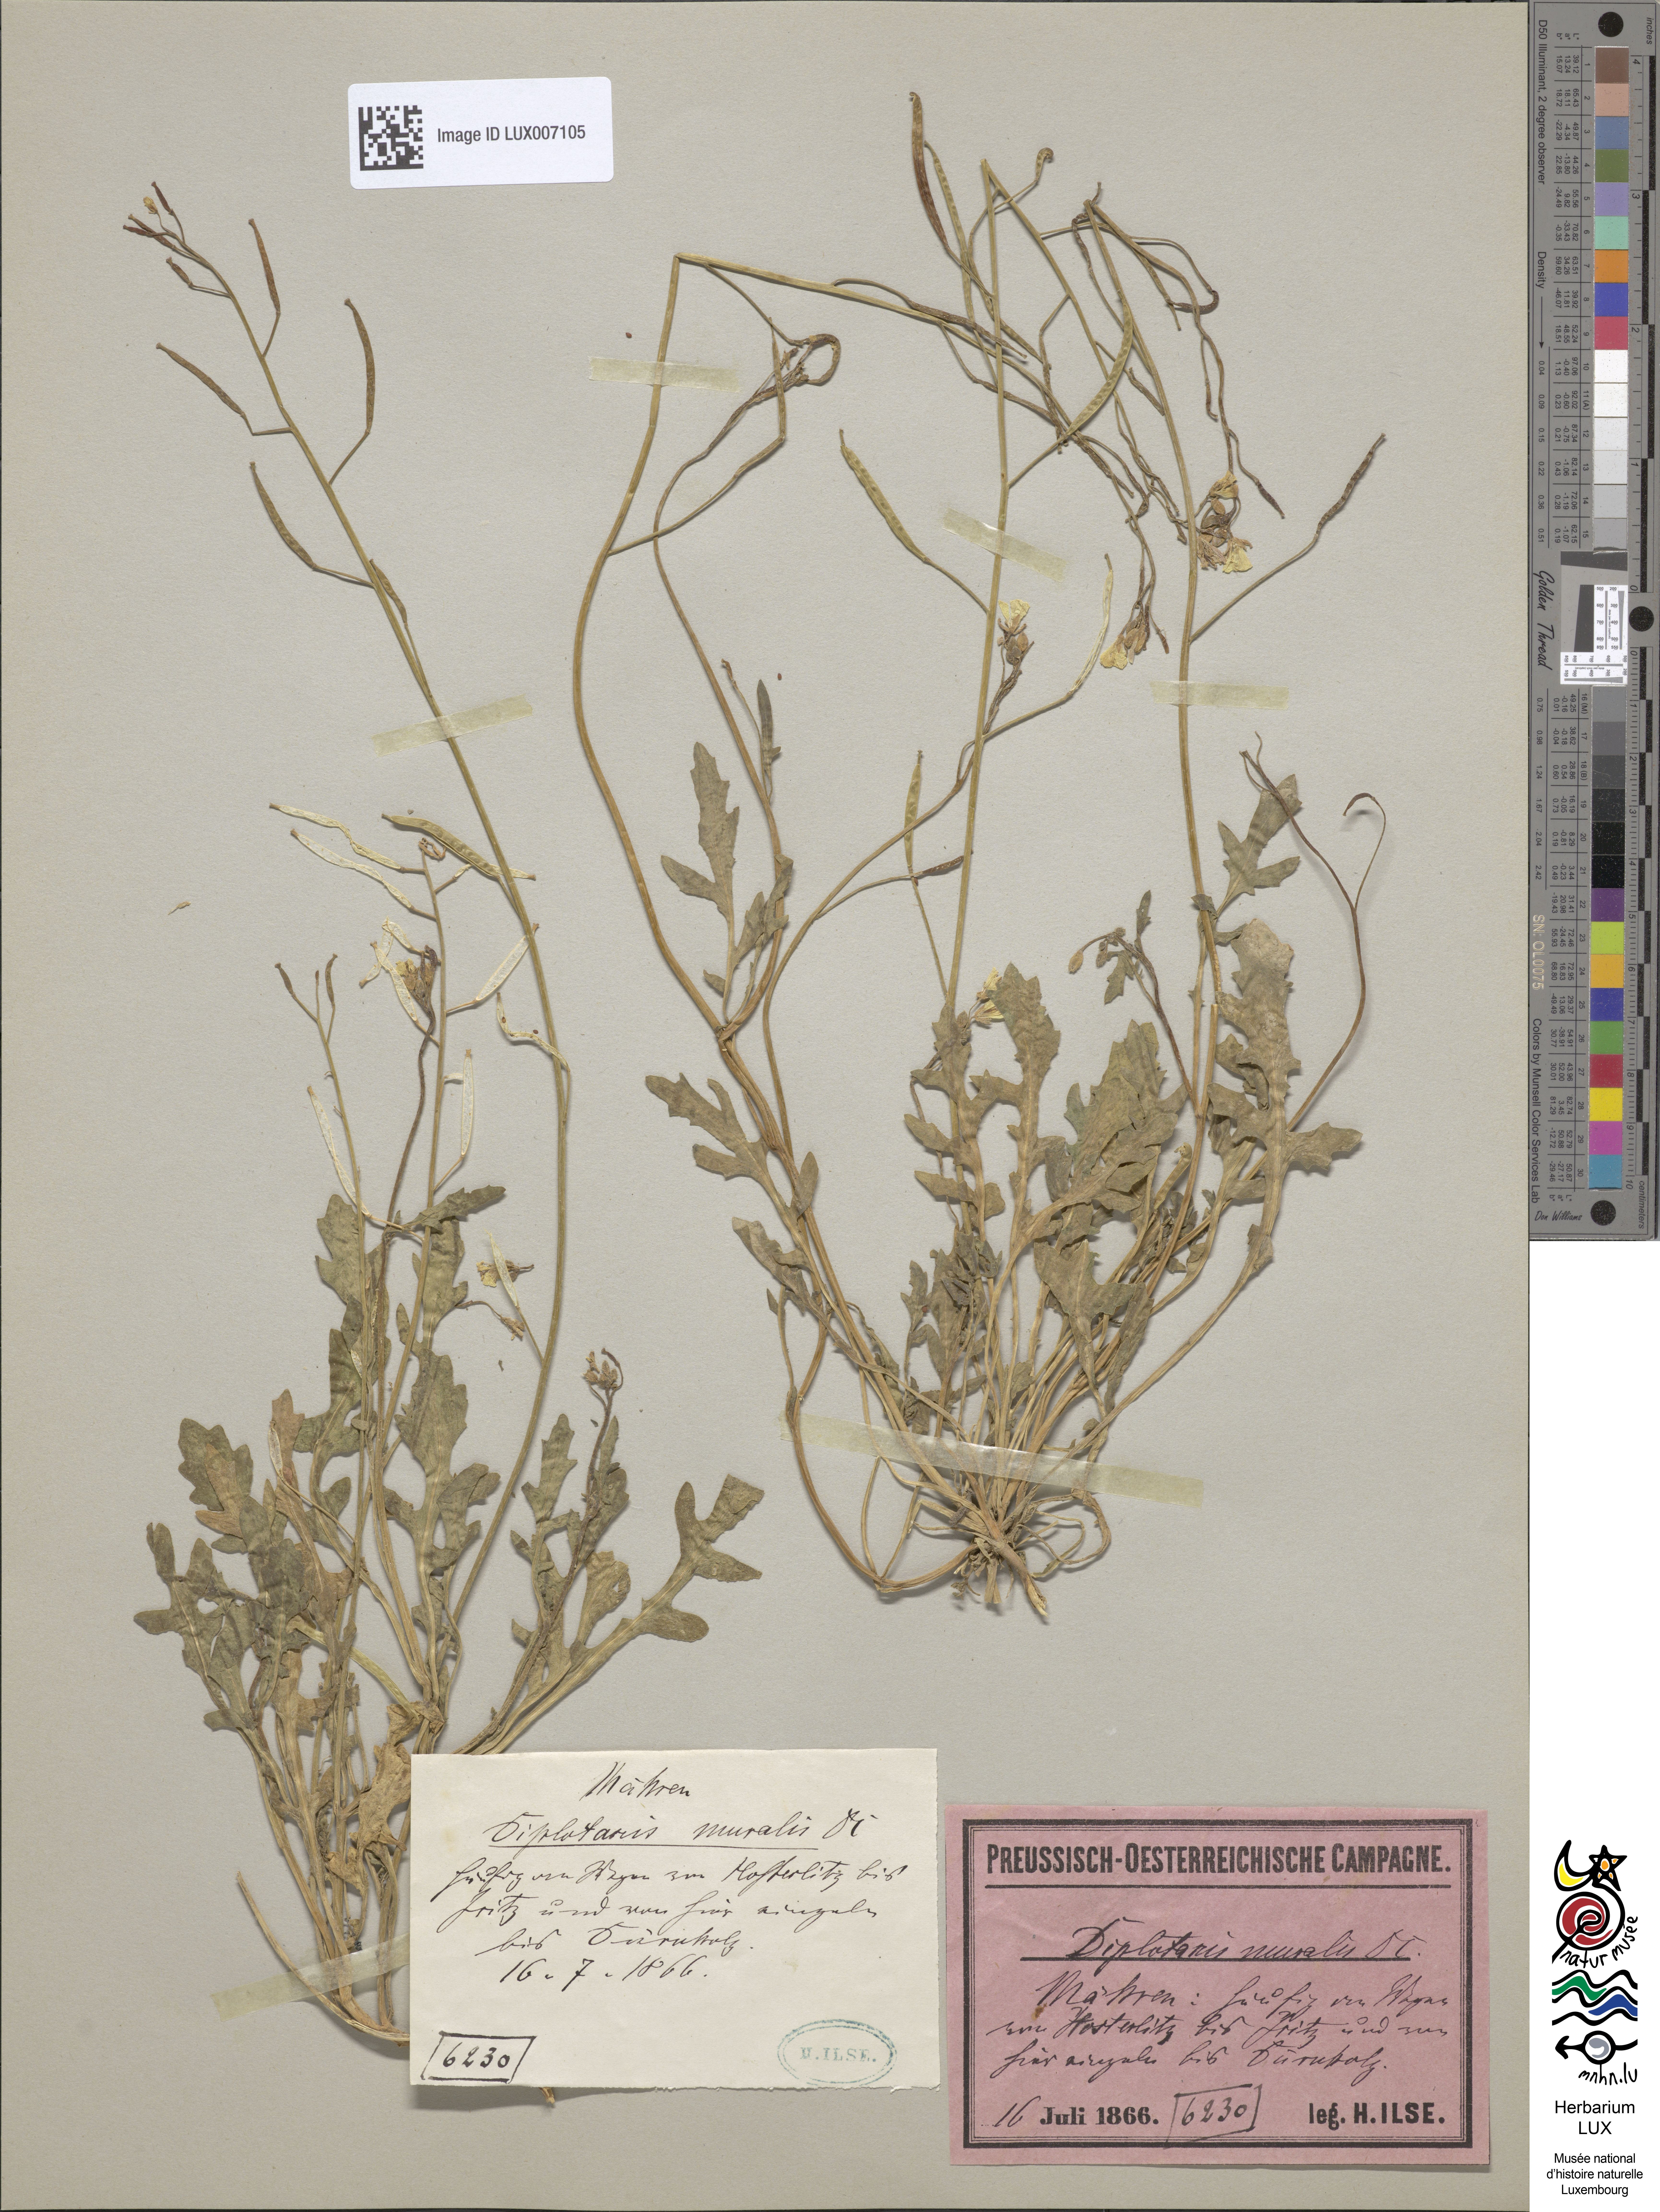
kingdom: Plantae
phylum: Tracheophyta
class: Magnoliopsida
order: Brassicales
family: Brassicaceae
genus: Diplotaxis
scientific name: Diplotaxis muralis
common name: Annual wall-rocket
